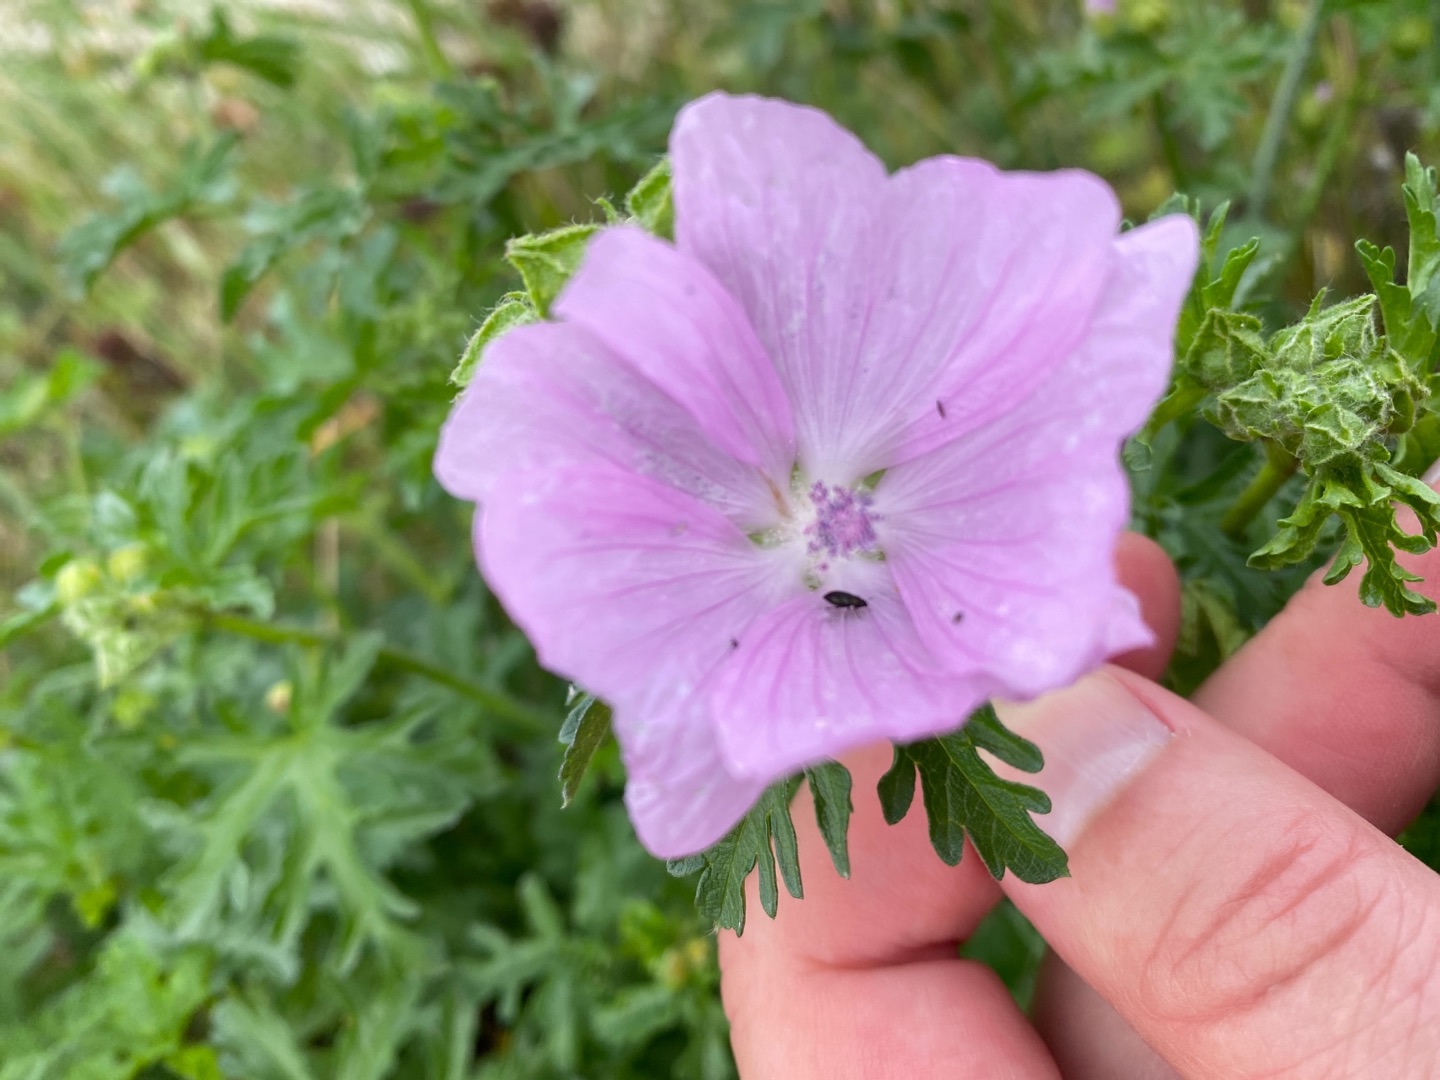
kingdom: Plantae
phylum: Tracheophyta
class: Magnoliopsida
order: Malvales
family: Malvaceae
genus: Malva
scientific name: Malva moschata
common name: Moskus-katost
